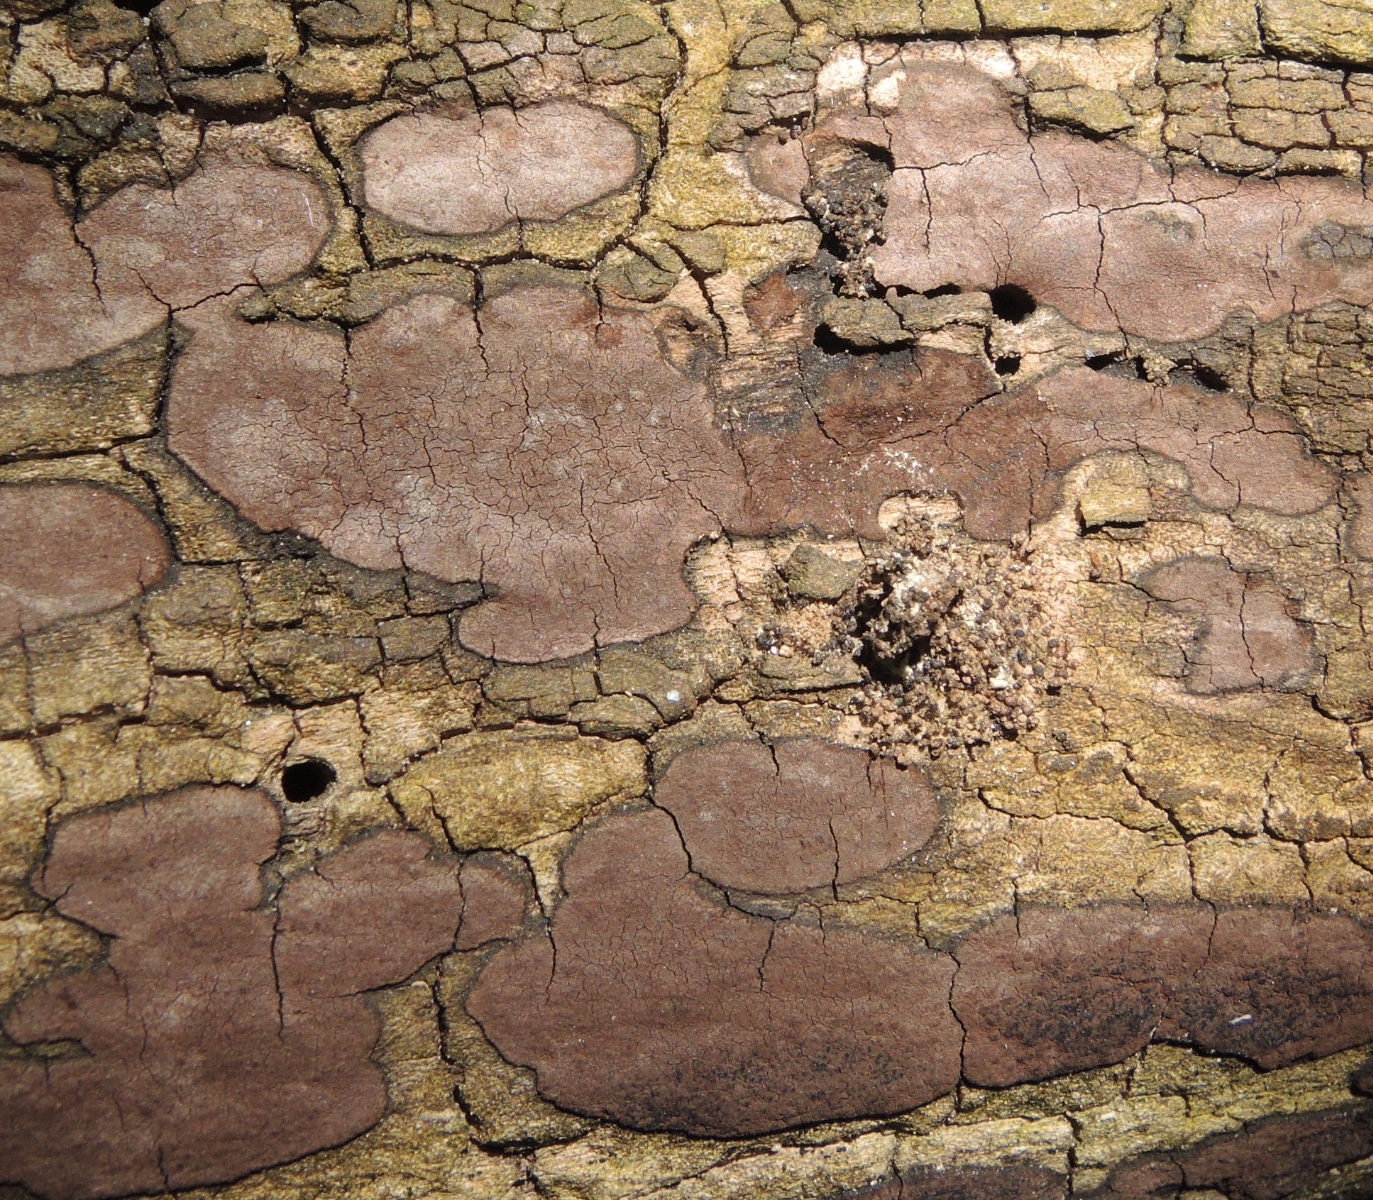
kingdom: Fungi
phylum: Ascomycota
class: Sordariomycetes
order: Xylariales
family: Hypoxylaceae
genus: Hypoxylon
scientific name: Hypoxylon petriniae
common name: nedsænket kulbær
